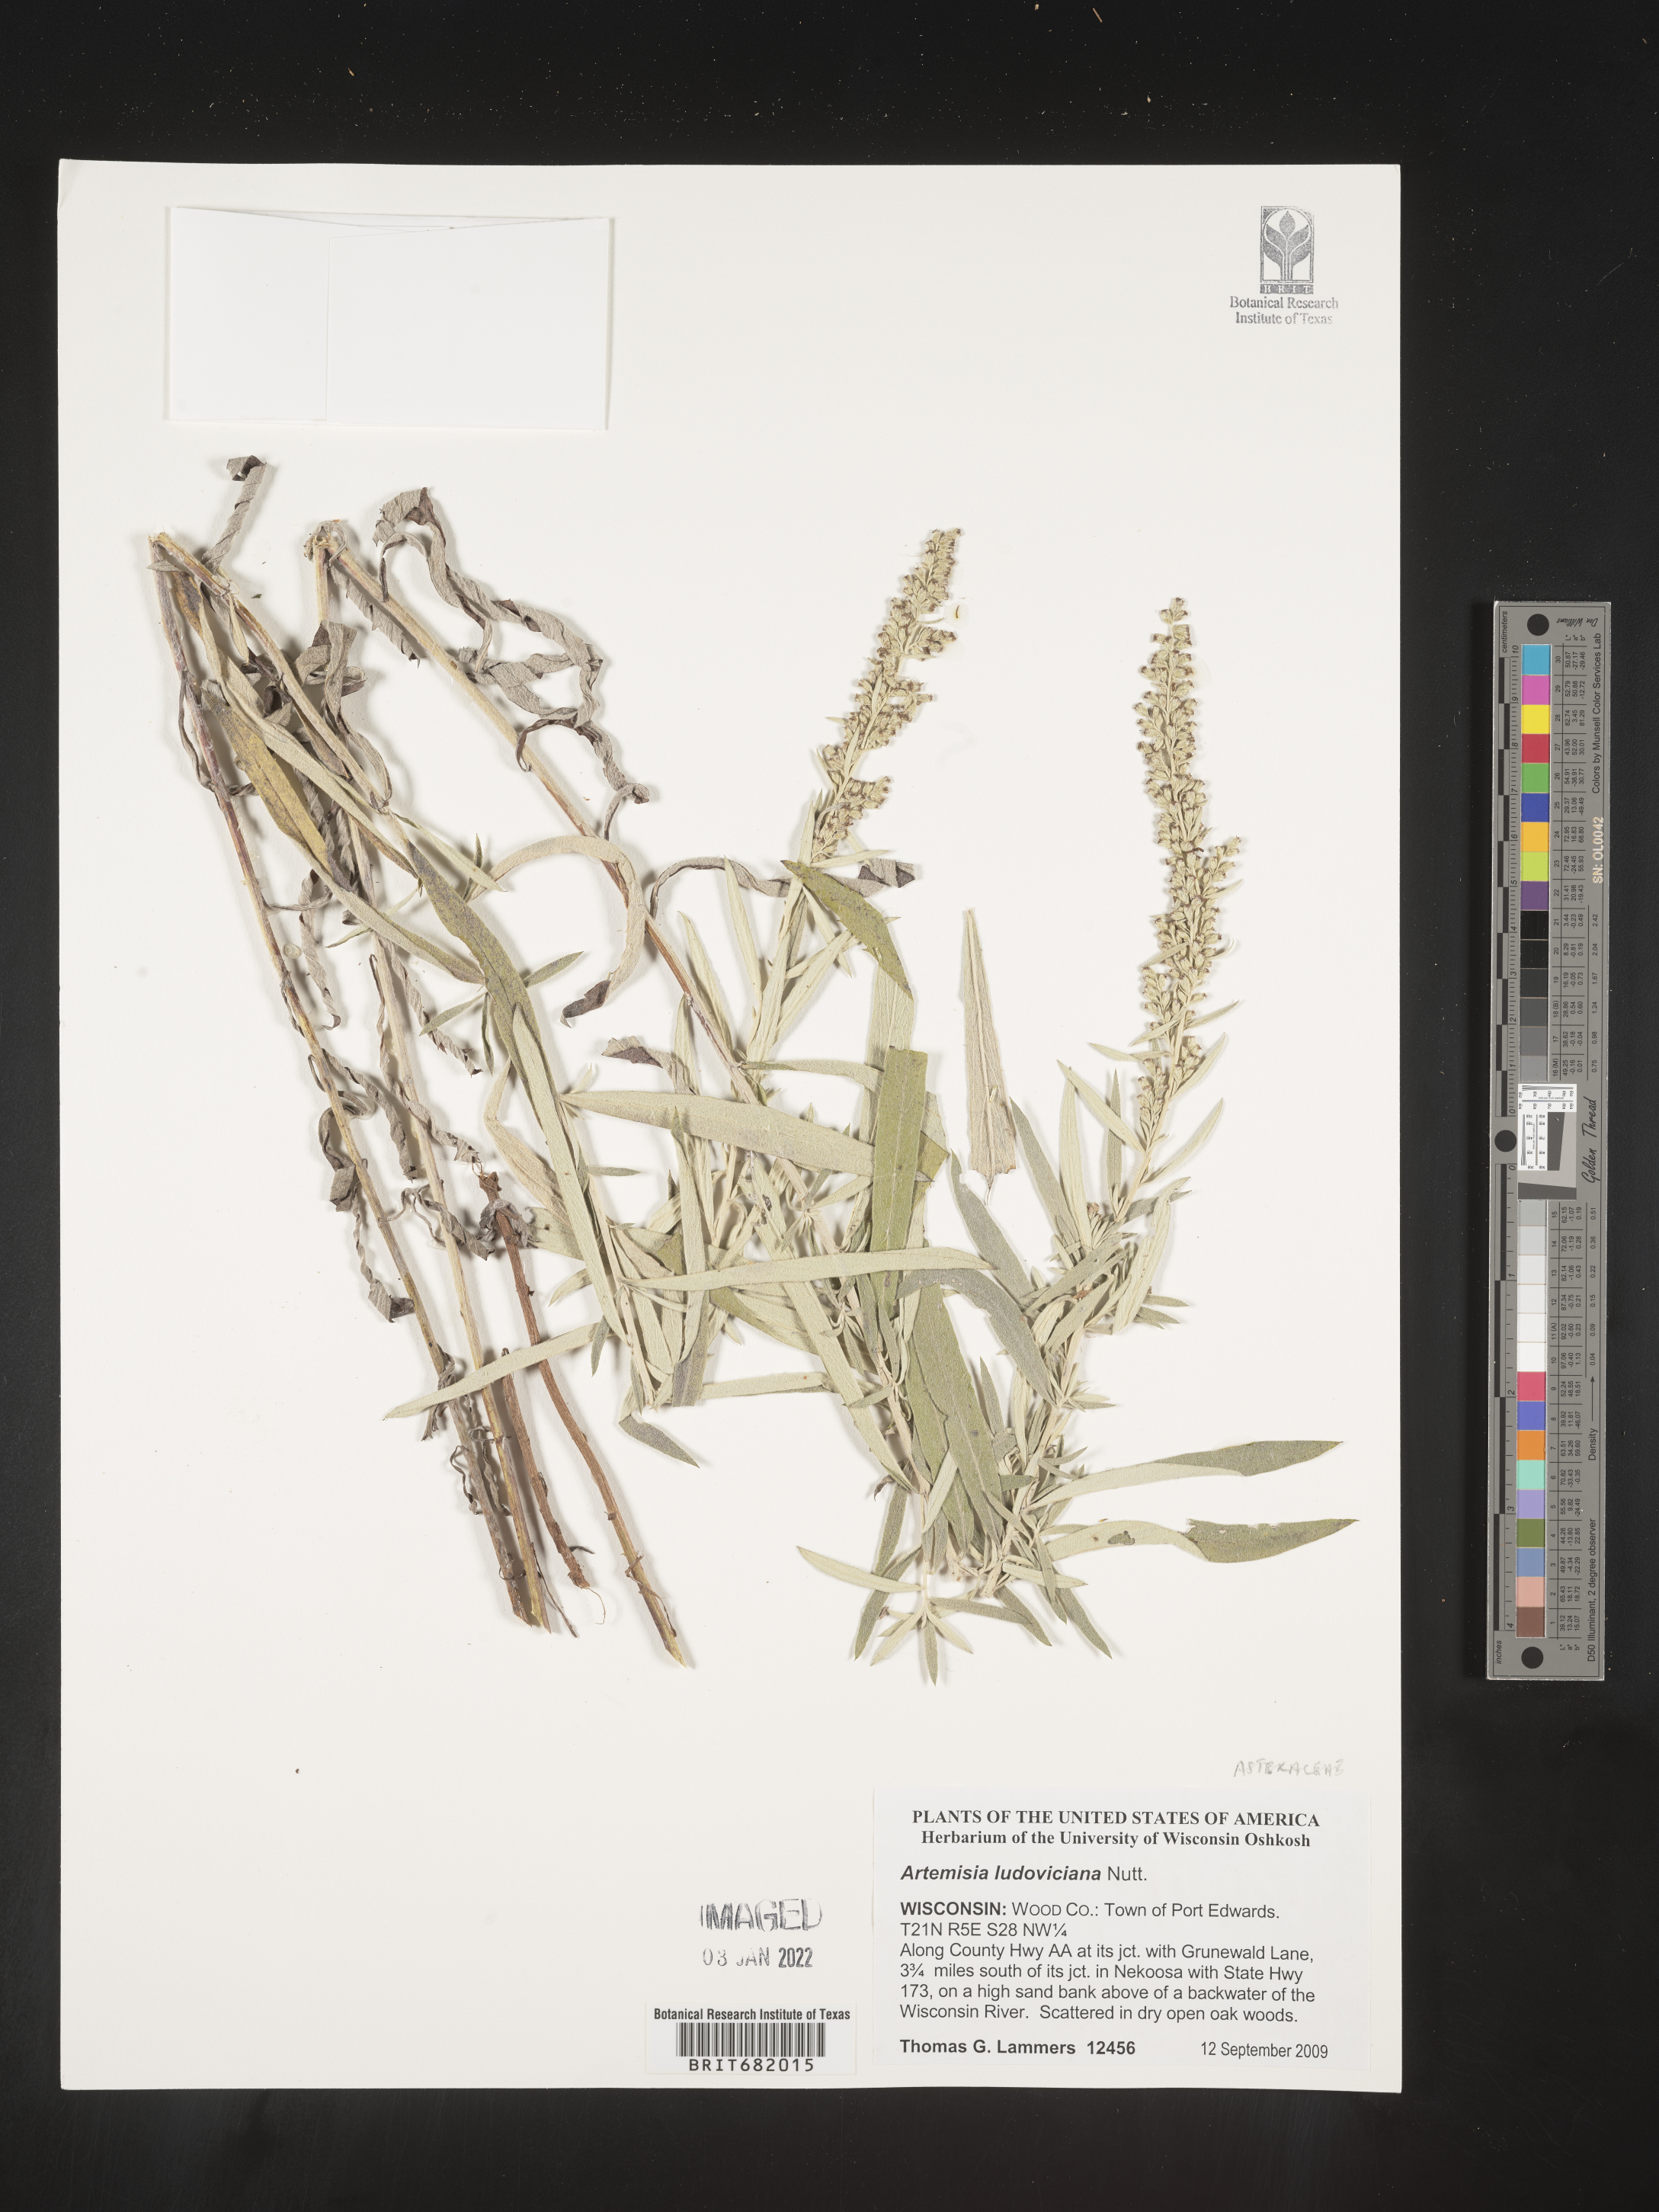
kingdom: Plantae
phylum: Tracheophyta
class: Magnoliopsida
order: Asterales
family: Asteraceae
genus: Artemisia
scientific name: Artemisia ludoviciana
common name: Western mugwort
